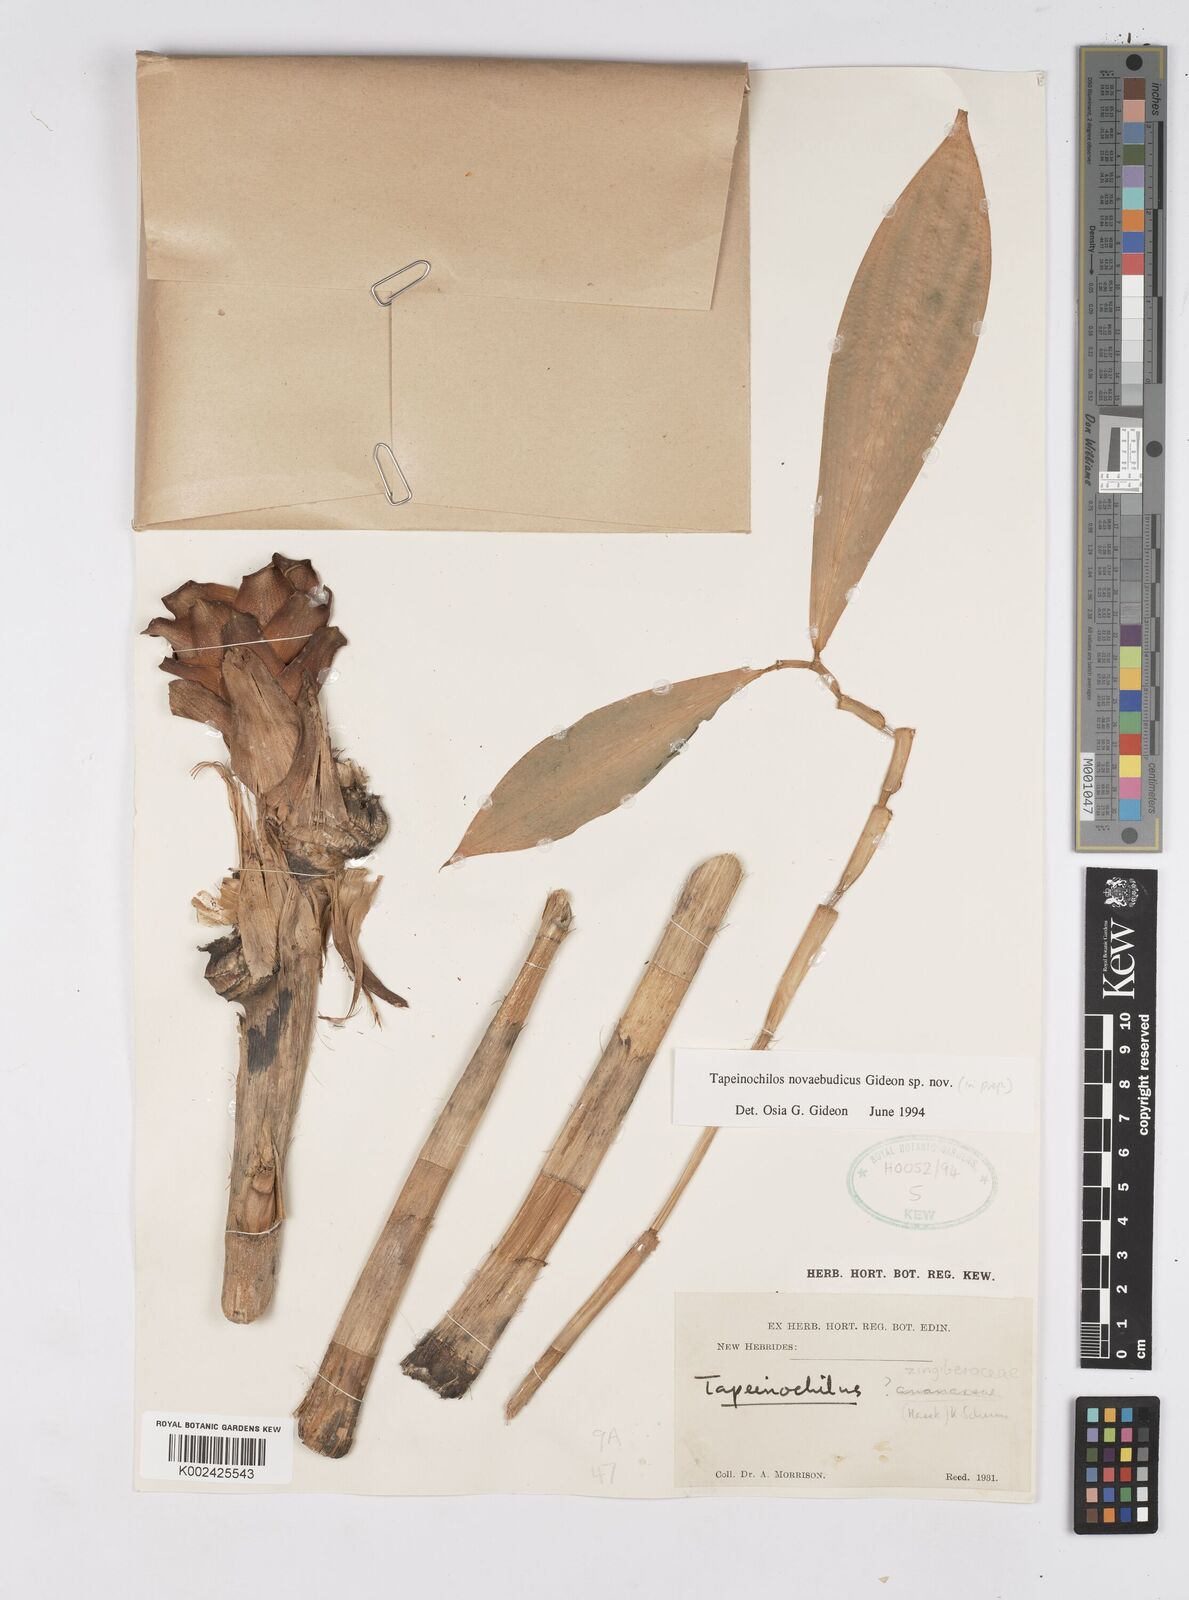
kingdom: Plantae
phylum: Tracheophyta
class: Liliopsida
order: Zingiberales
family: Costaceae
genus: Tapeinochilos
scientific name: Tapeinochilos
